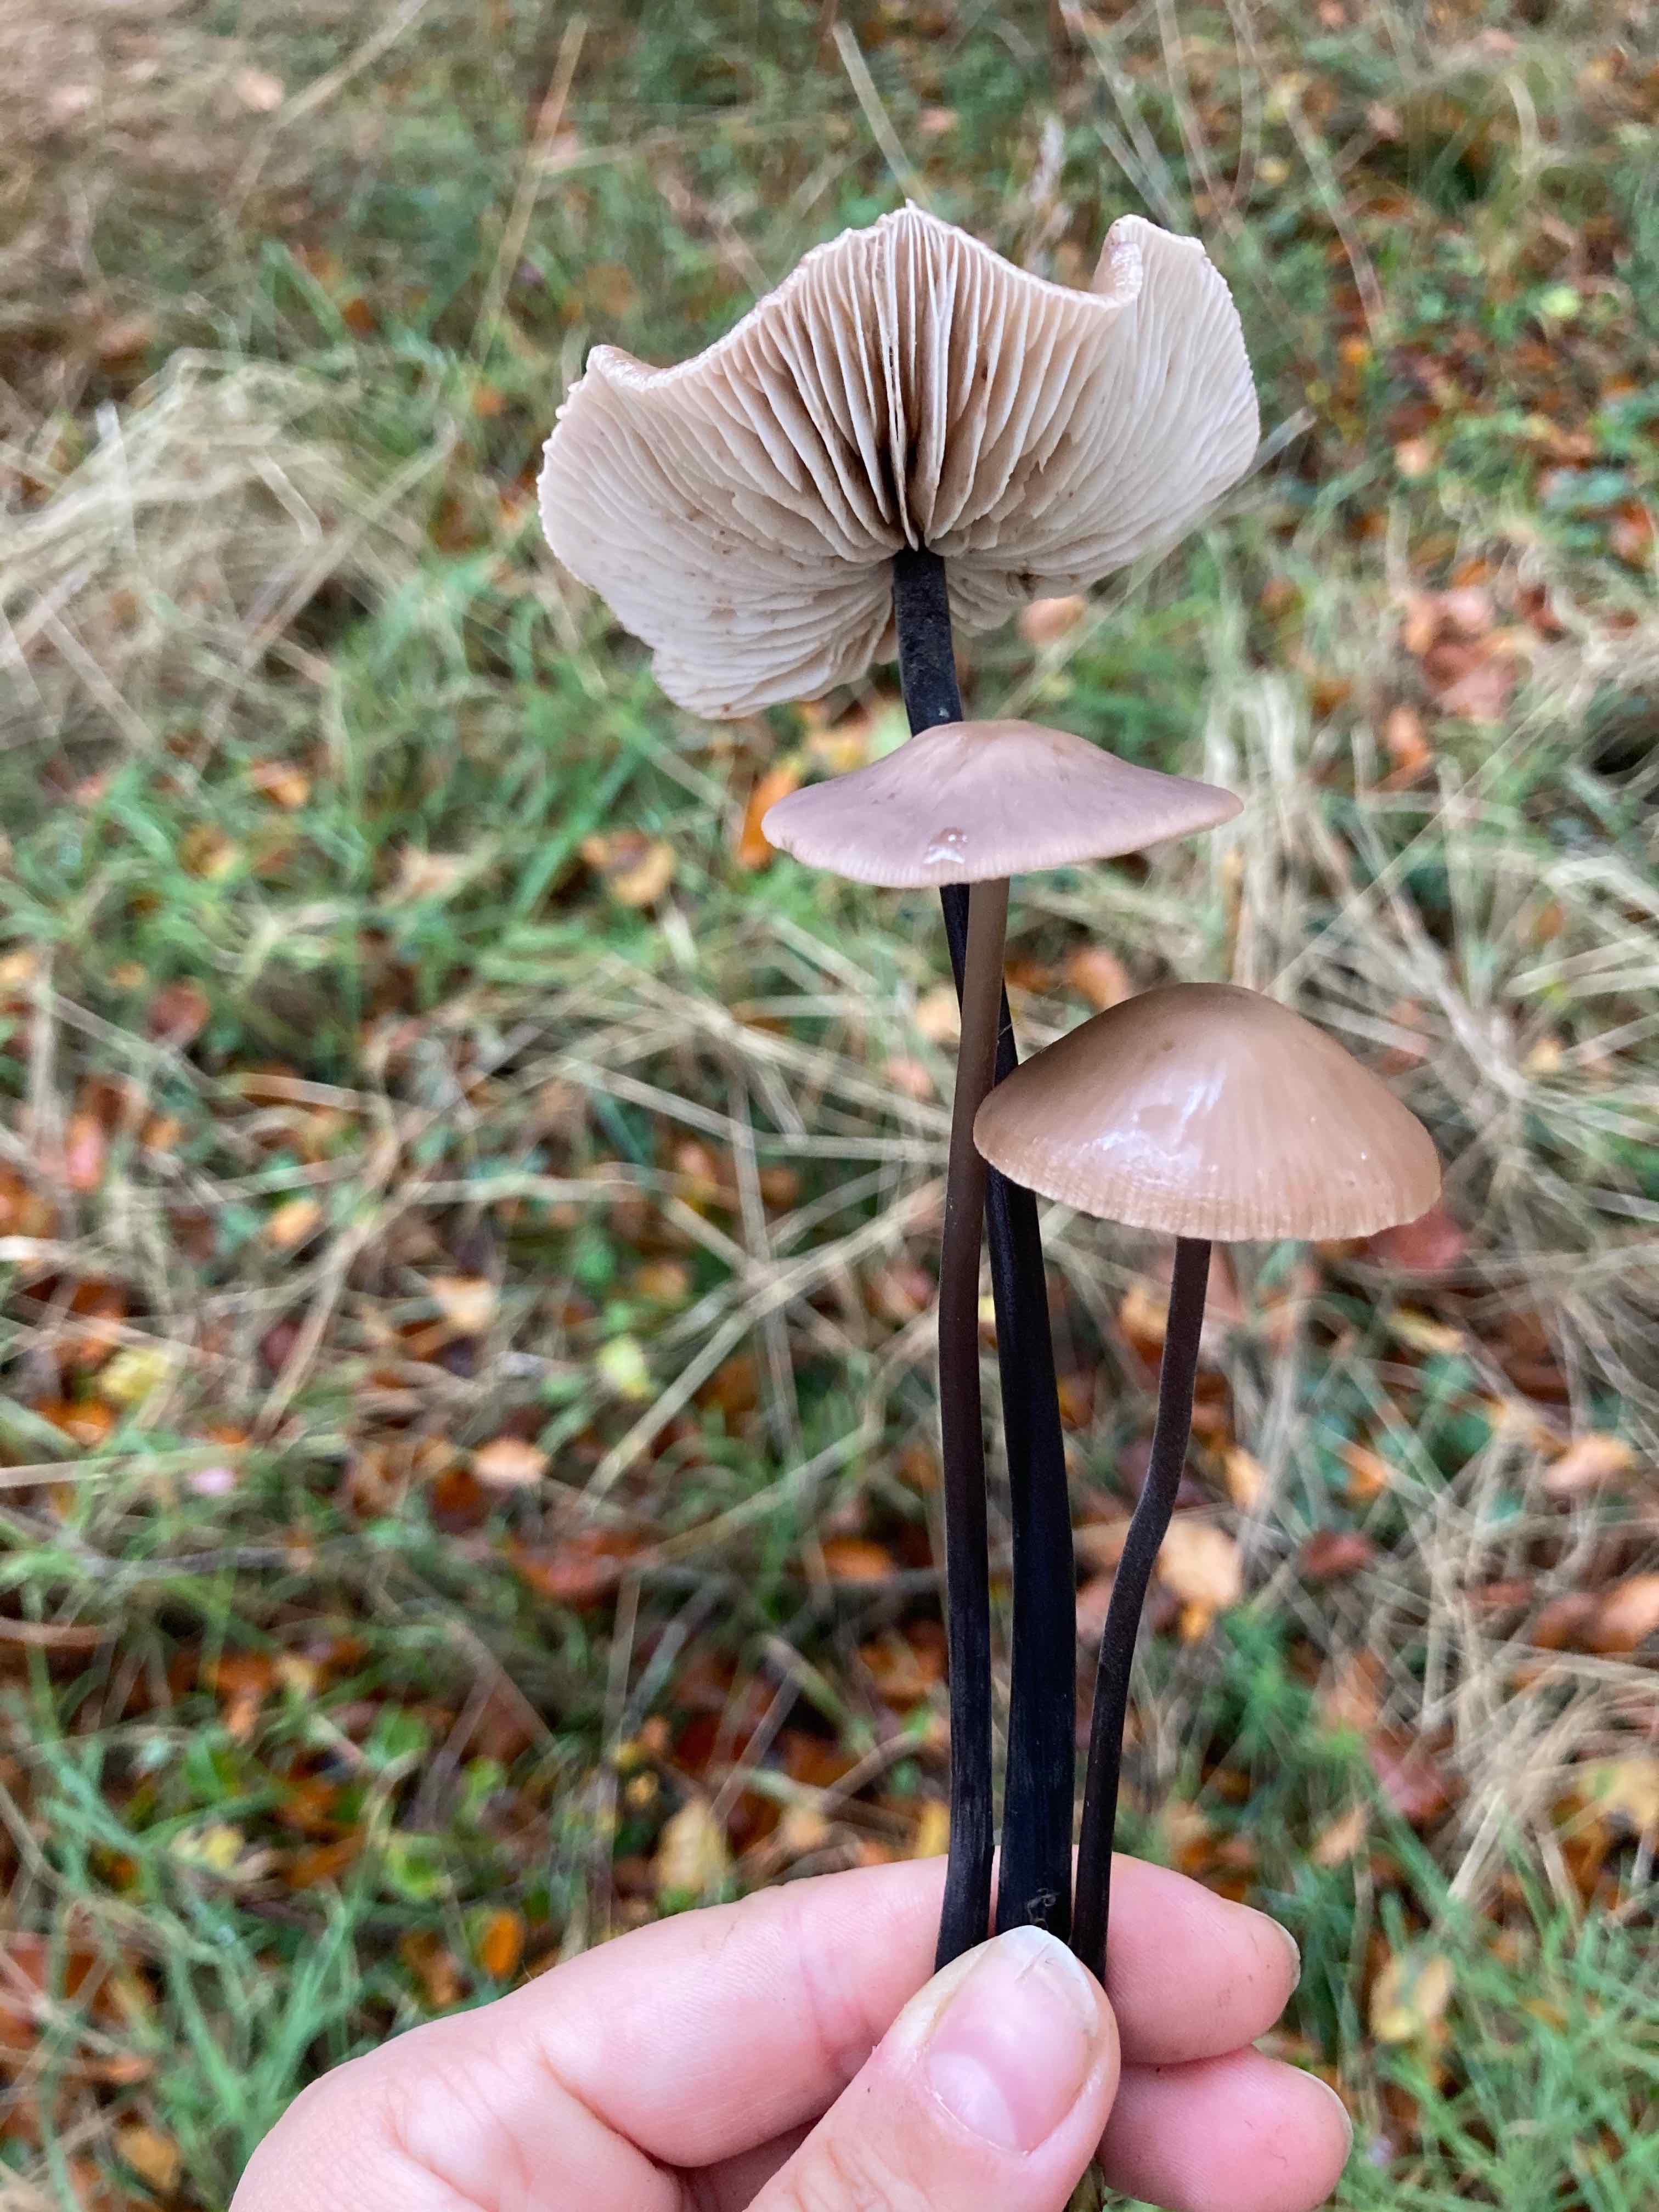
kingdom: Fungi
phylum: Basidiomycota
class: Agaricomycetes
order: Agaricales
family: Omphalotaceae
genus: Mycetinis
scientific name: Mycetinis alliaceus
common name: stor løghat
